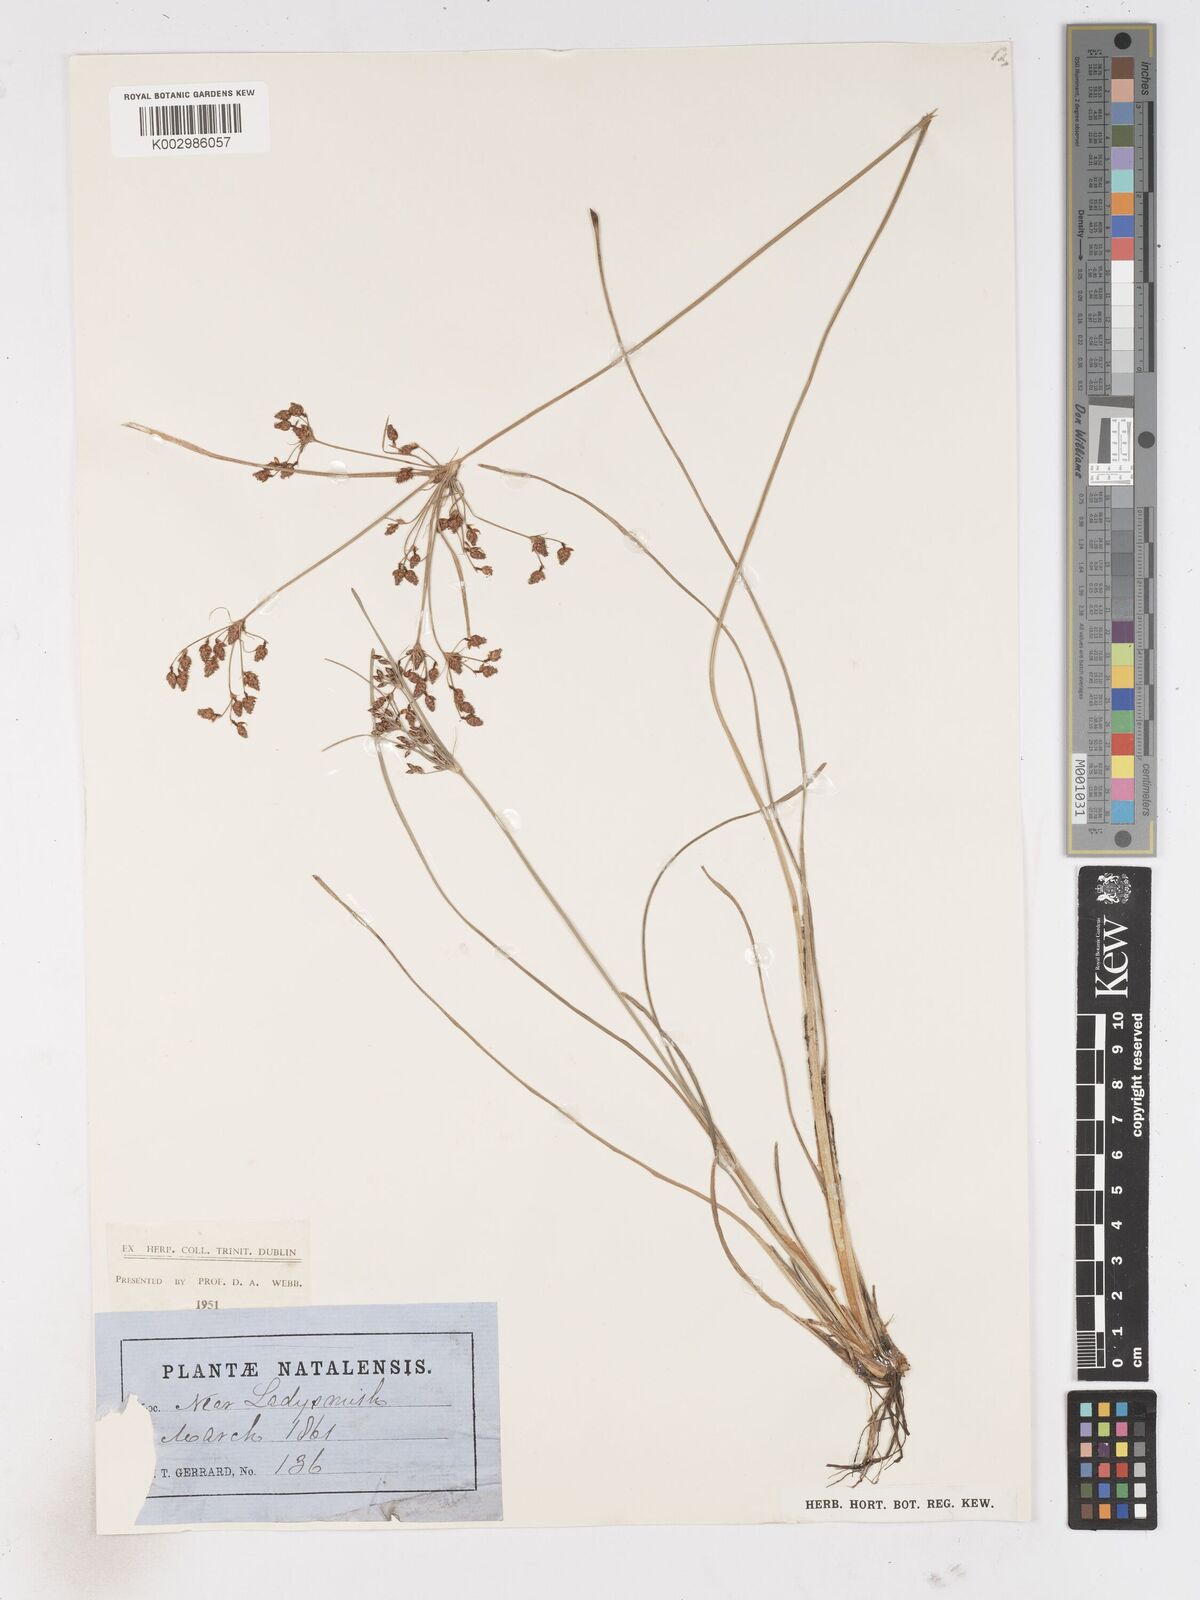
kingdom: Plantae
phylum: Tracheophyta
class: Liliopsida
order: Poales
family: Cyperaceae
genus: Fimbristylis
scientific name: Fimbristylis
